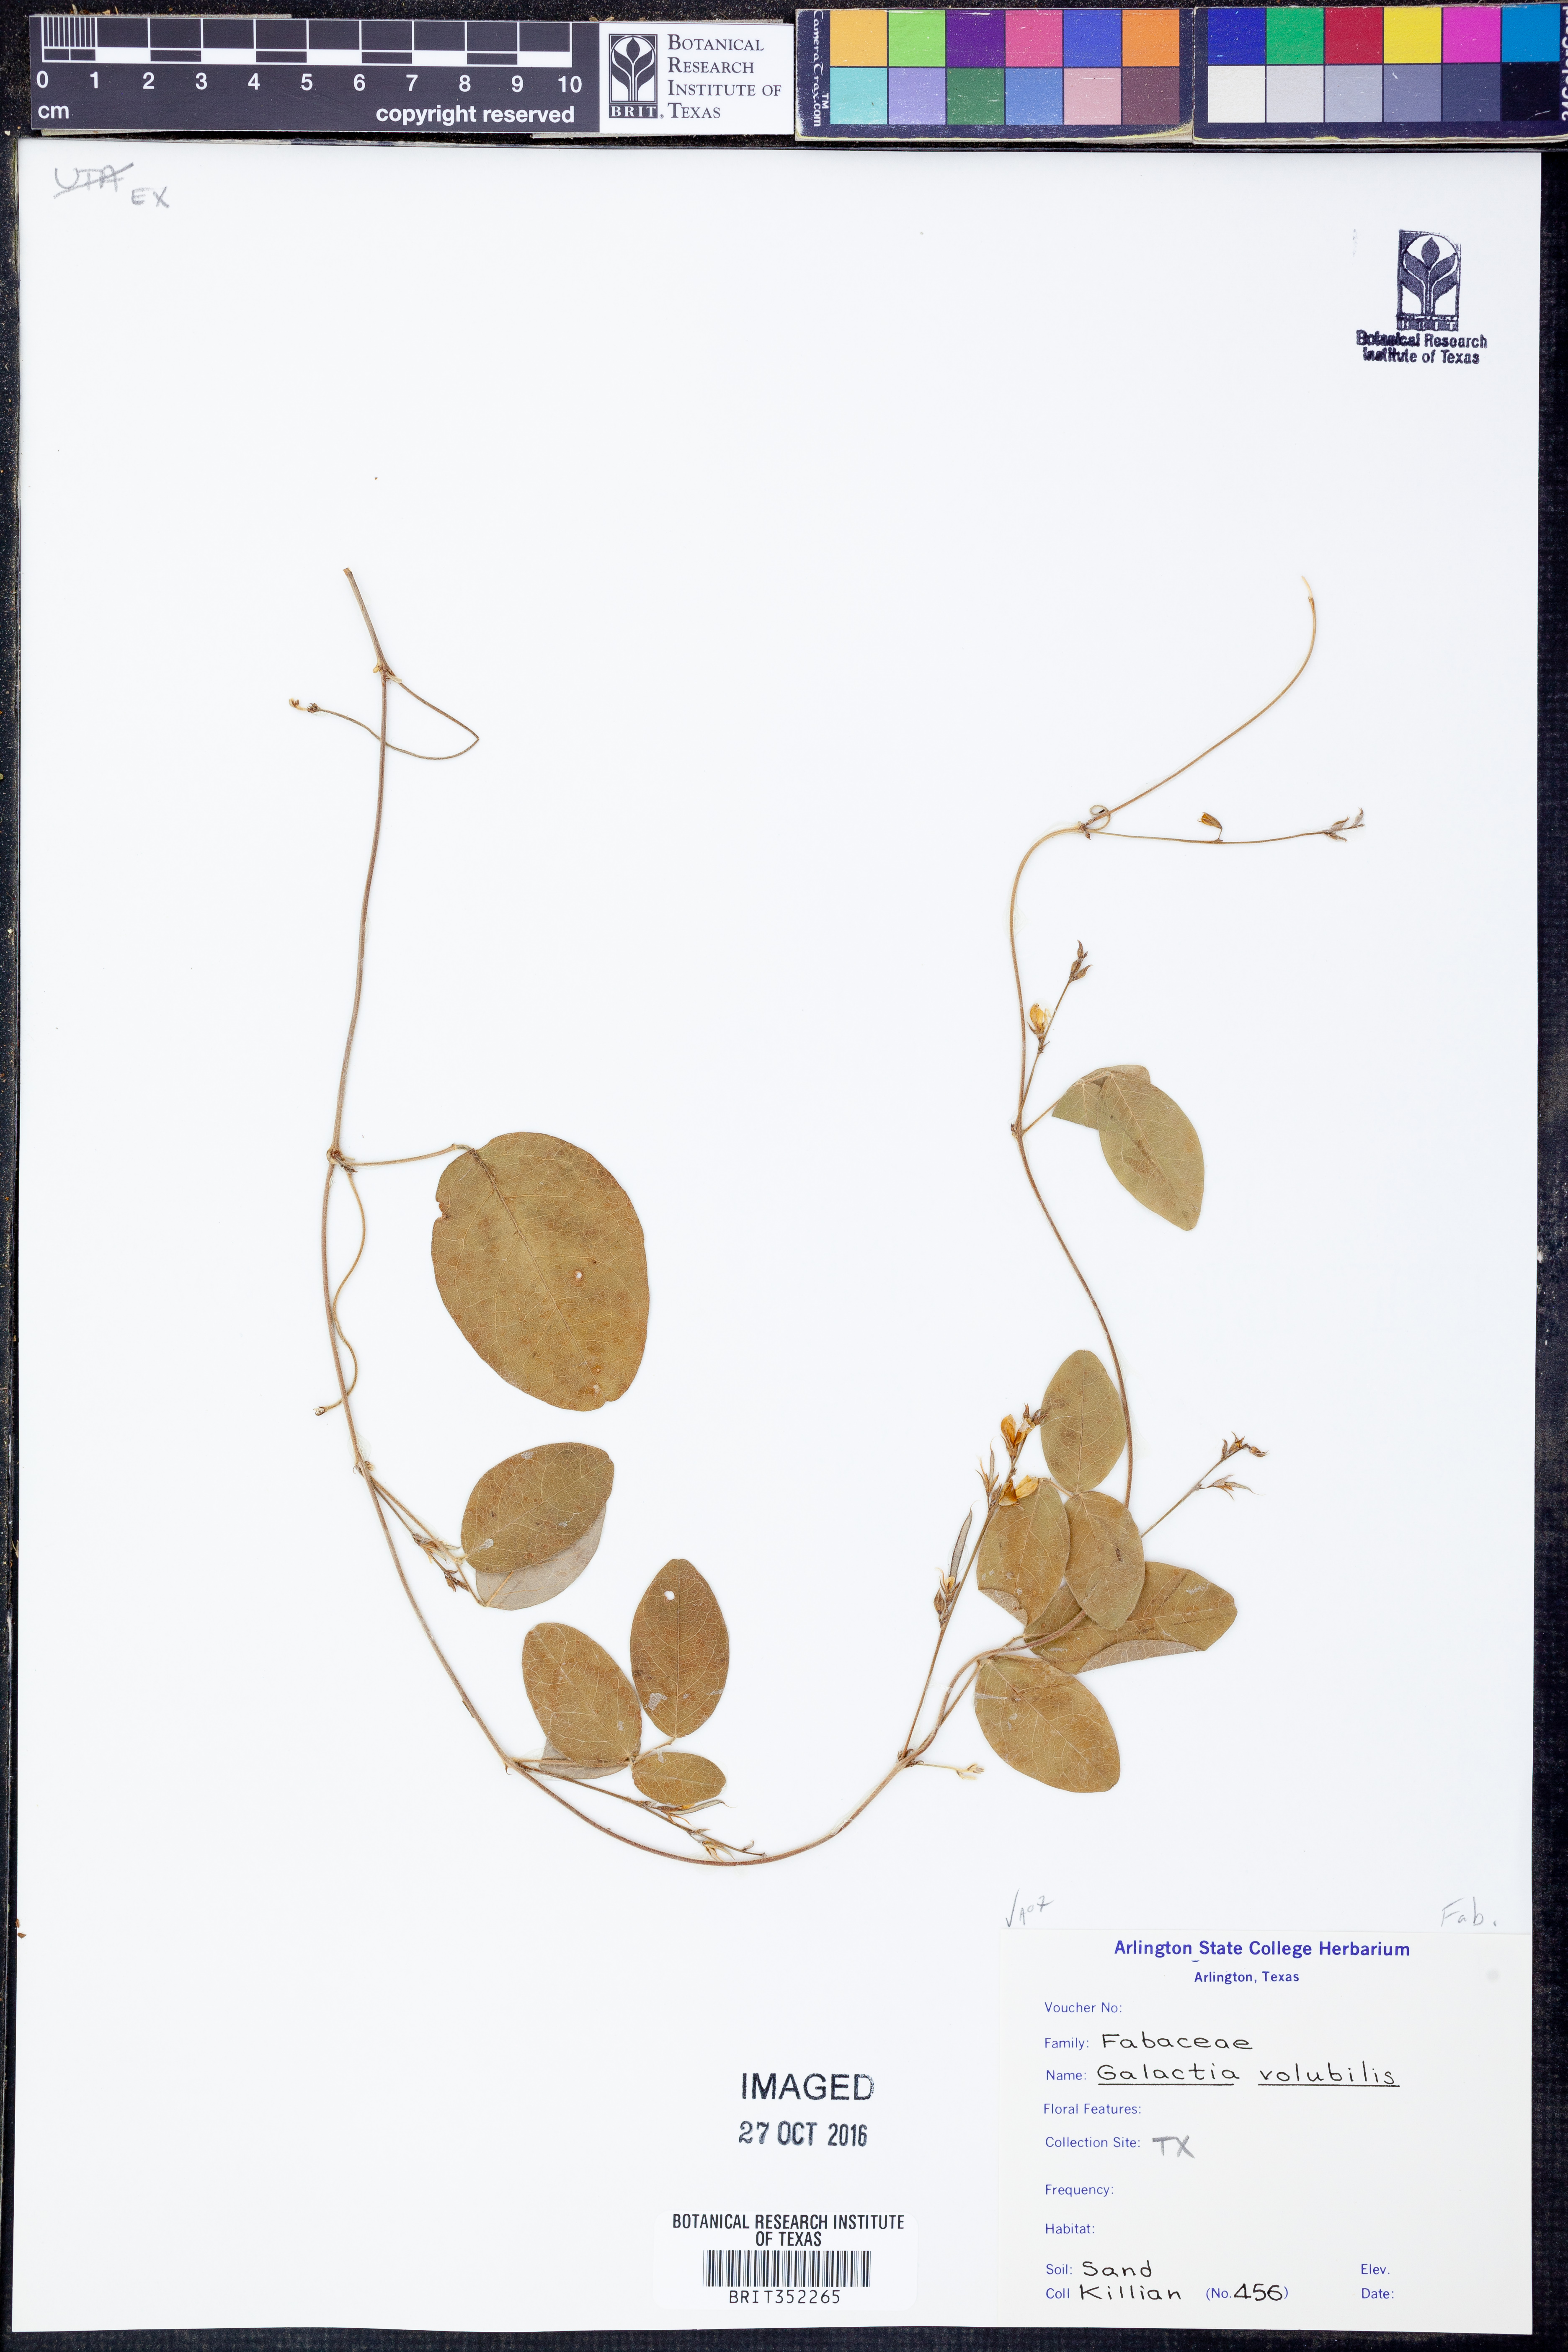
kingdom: Plantae
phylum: Tracheophyta
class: Magnoliopsida
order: Fabales
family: Fabaceae
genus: Galactia
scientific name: Galactia volubilis
